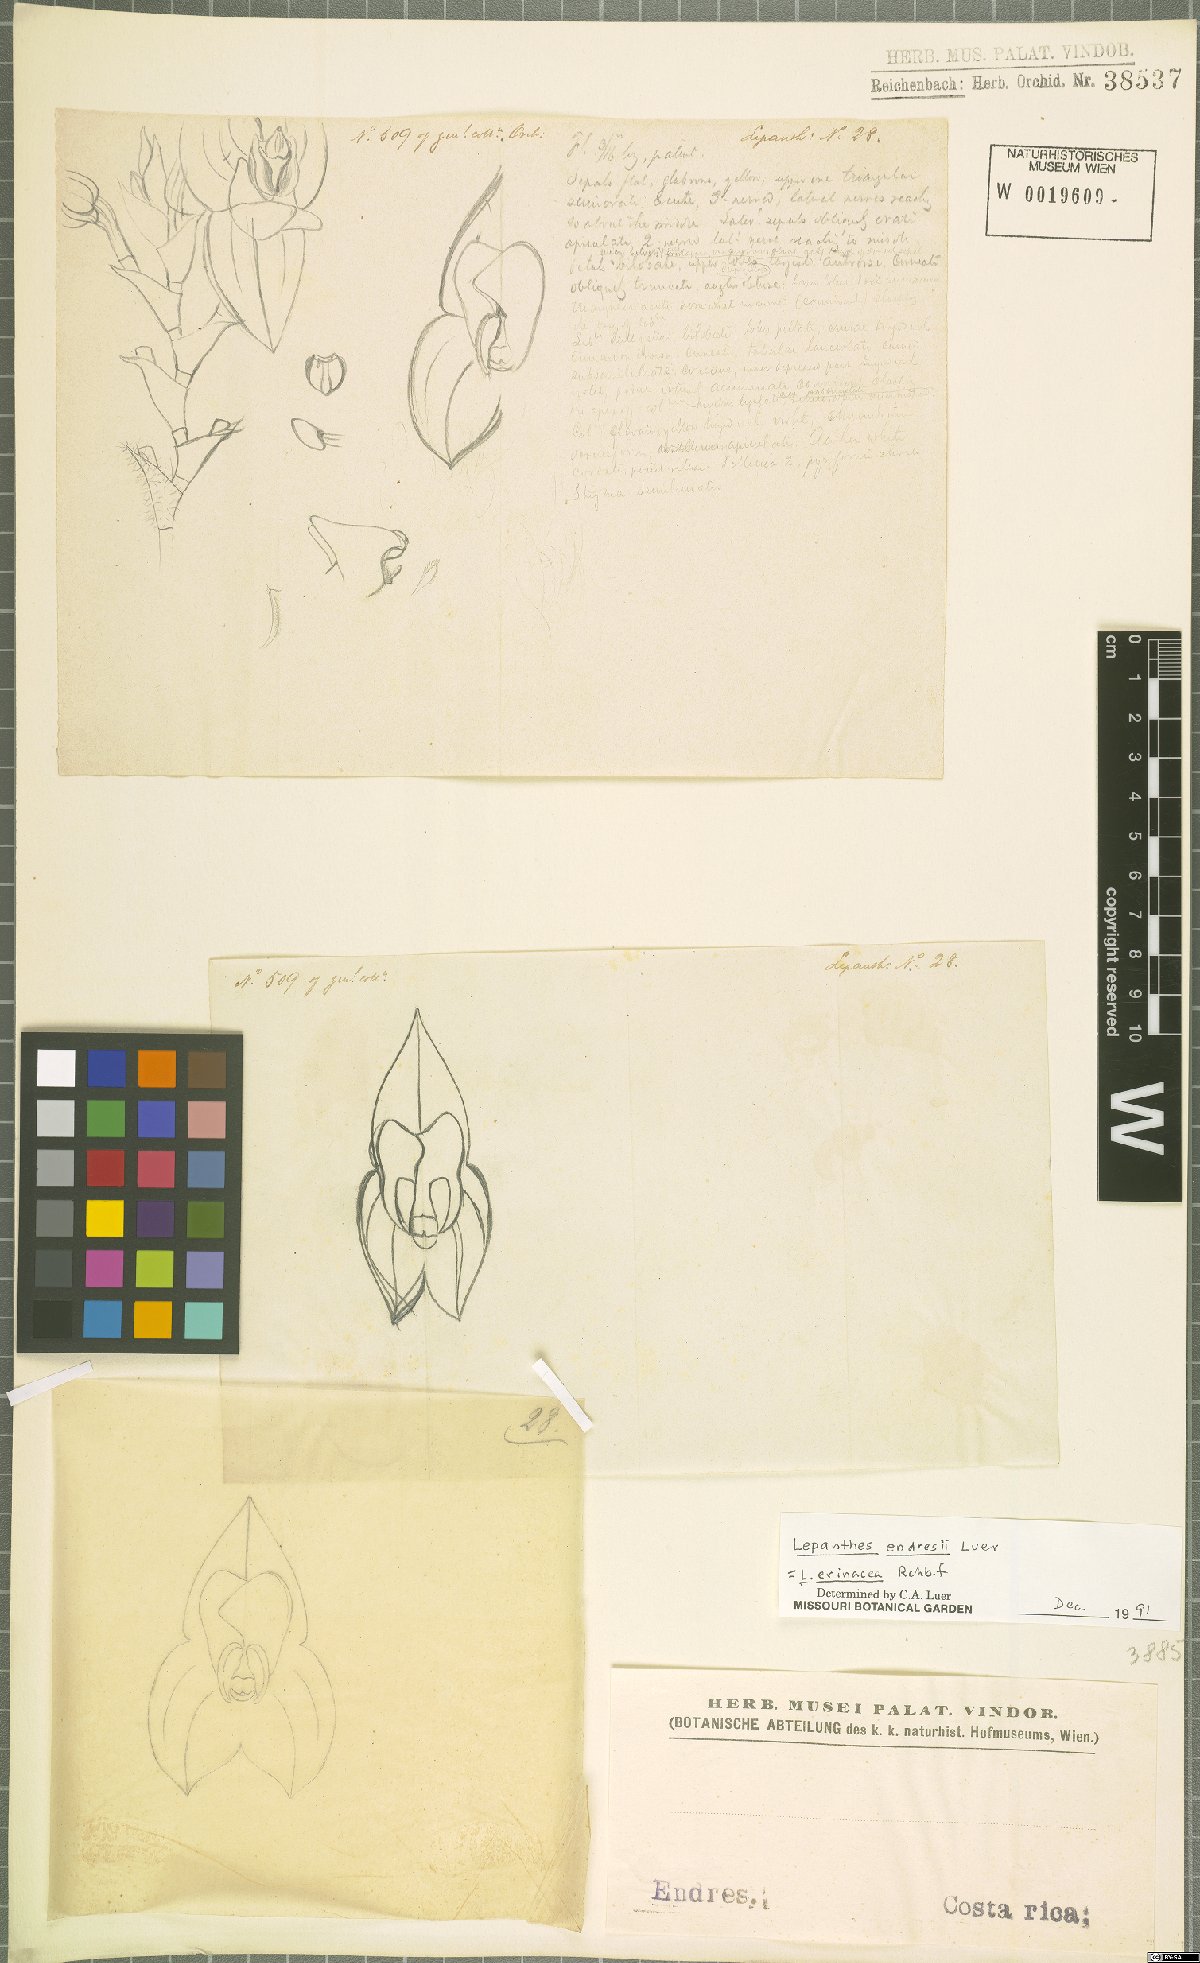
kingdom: Plantae
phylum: Tracheophyta
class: Liliopsida
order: Asparagales
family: Orchidaceae
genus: Lepanthes
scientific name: Lepanthes erinacea
